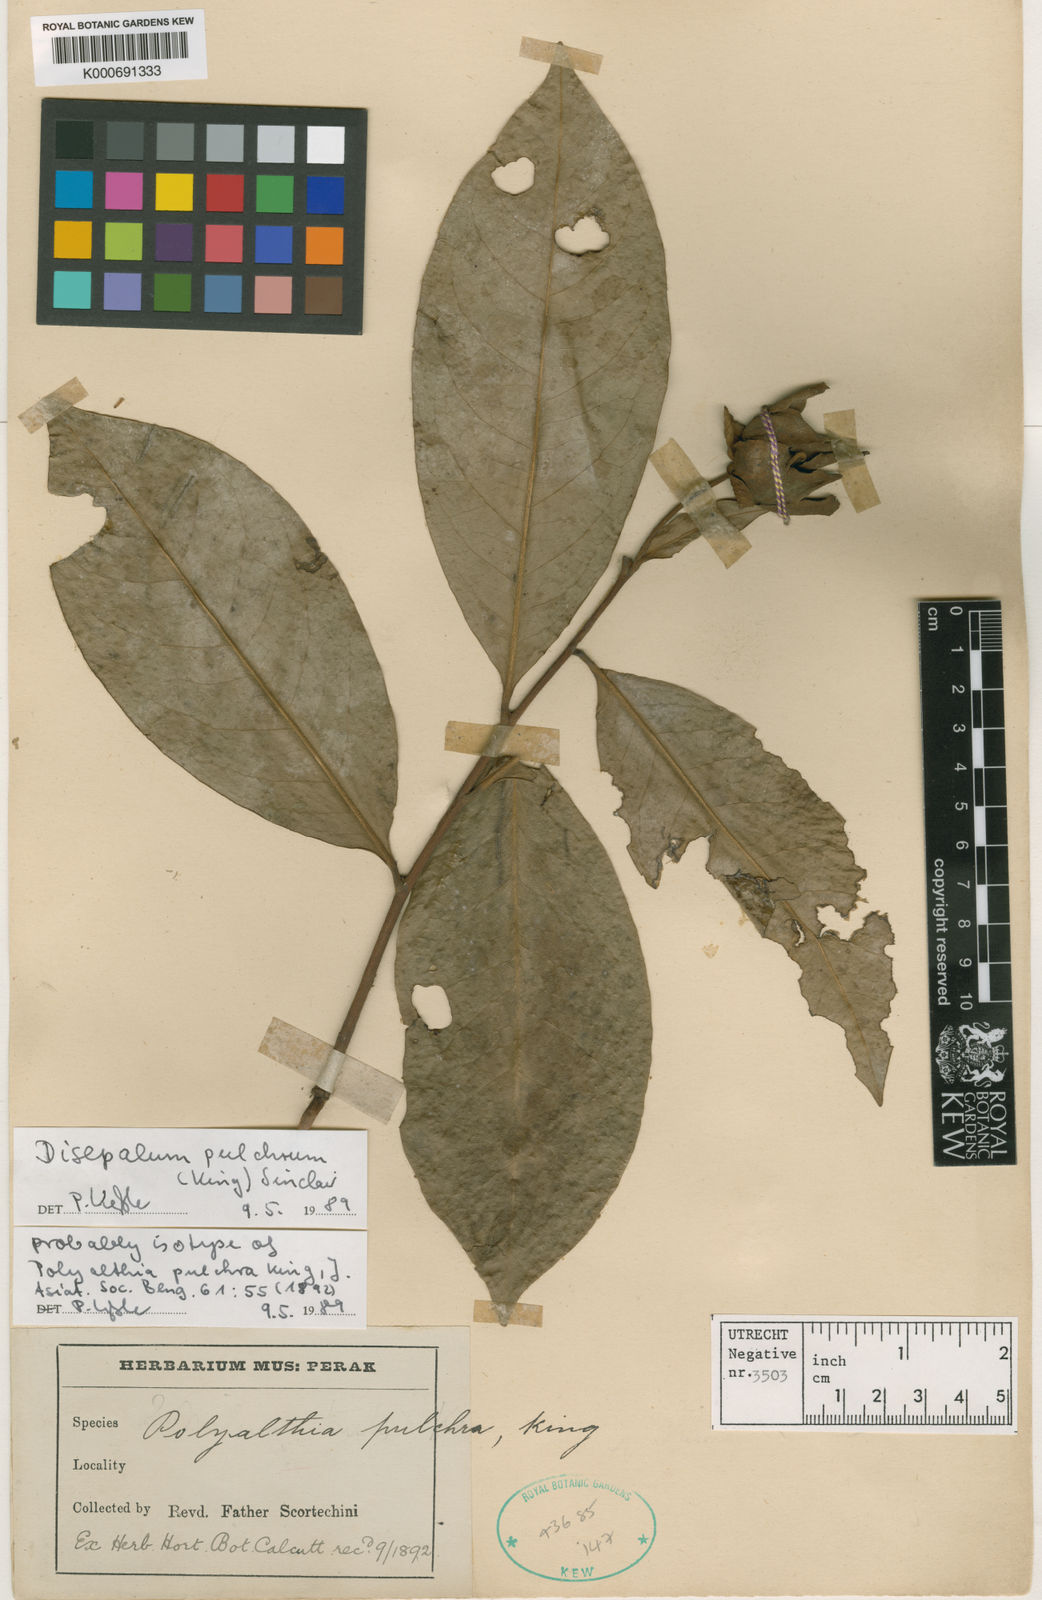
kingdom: Plantae
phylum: Tracheophyta
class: Magnoliopsida
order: Magnoliales
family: Annonaceae
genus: Disepalum
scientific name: Disepalum pulchrum
